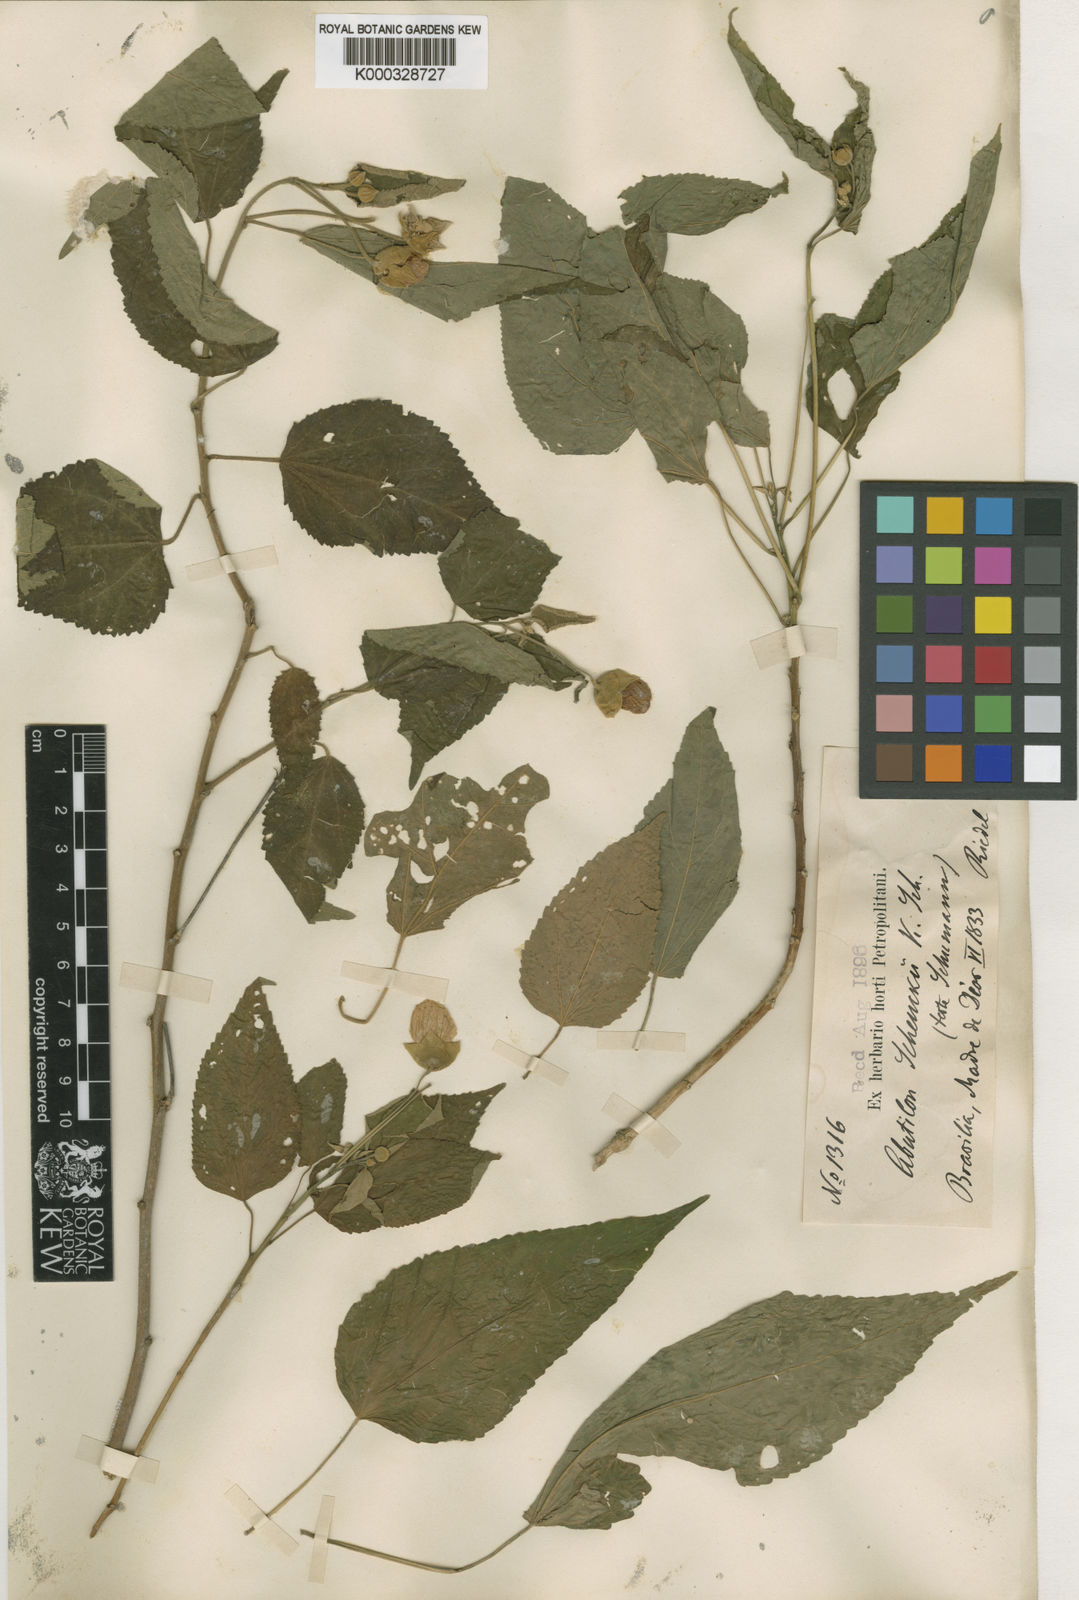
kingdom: Plantae
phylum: Tracheophyta
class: Magnoliopsida
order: Malvales
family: Malvaceae
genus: Callianthe
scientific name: Callianthe schenckii
